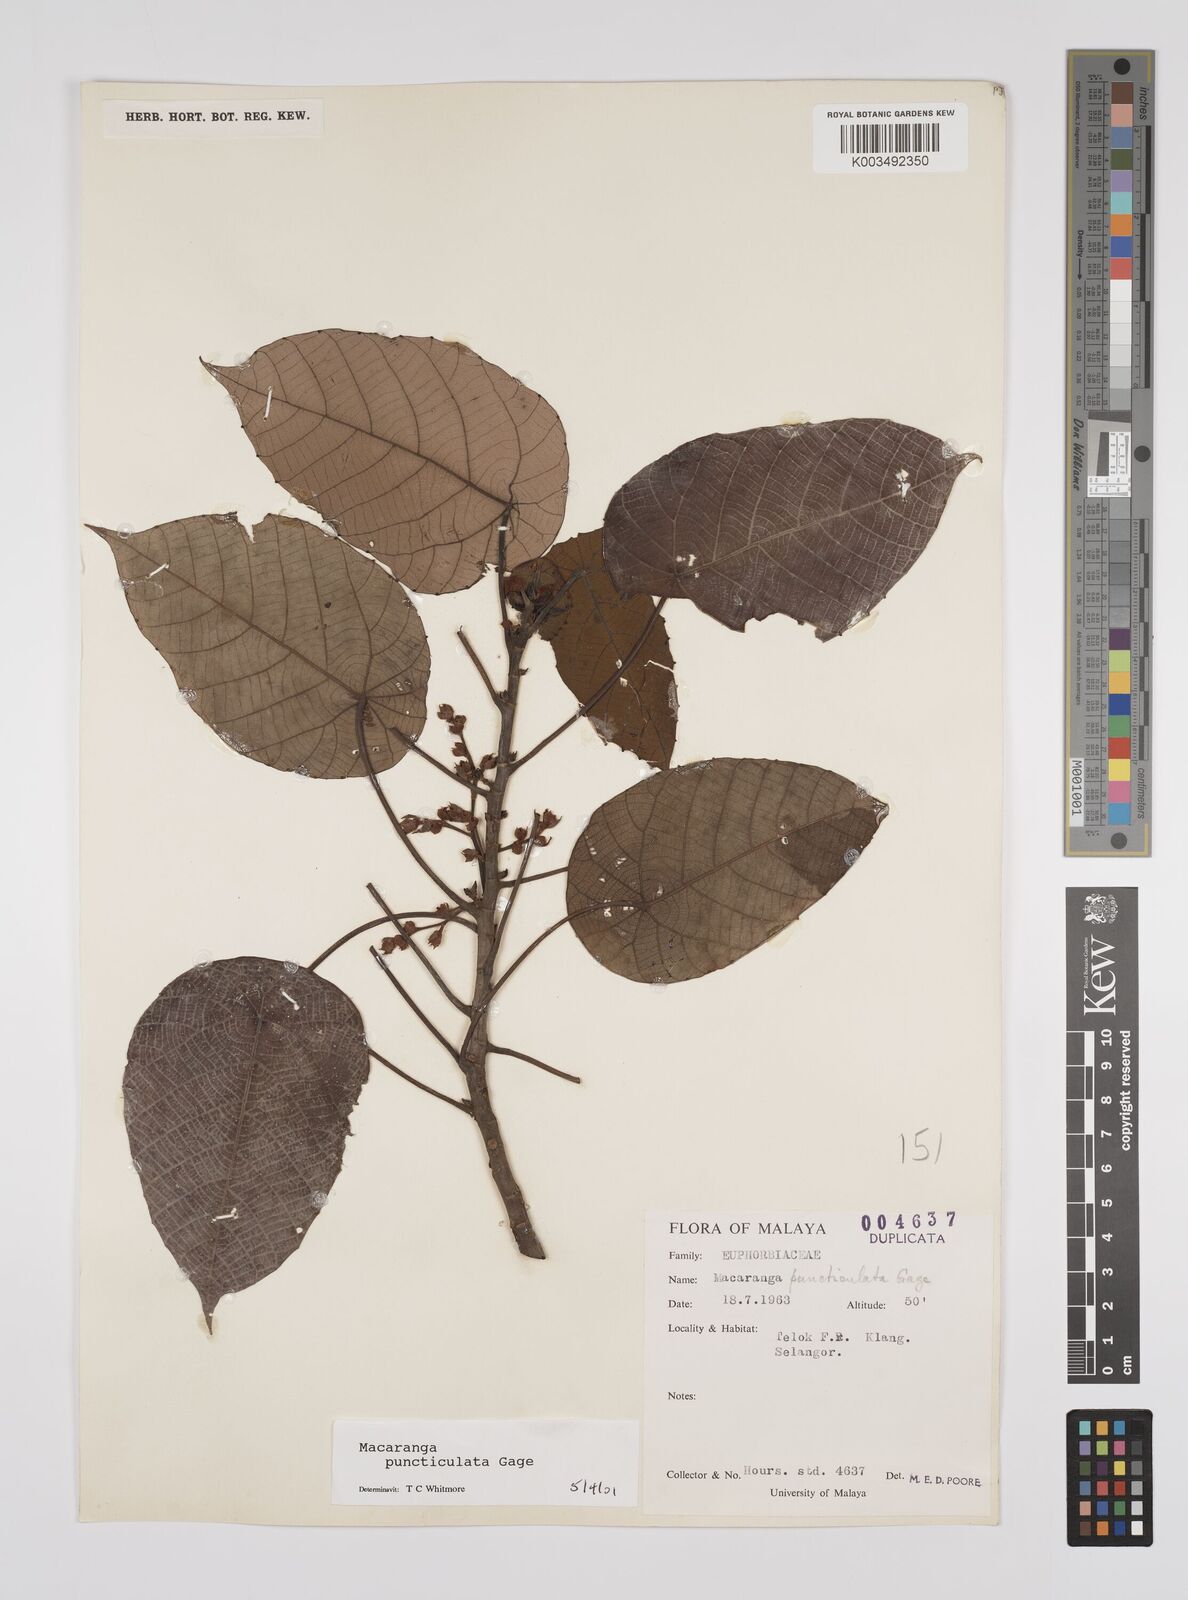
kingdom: Plantae
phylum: Tracheophyta
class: Magnoliopsida
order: Malpighiales
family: Euphorbiaceae
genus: Macaranga
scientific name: Macaranga puncticulata
